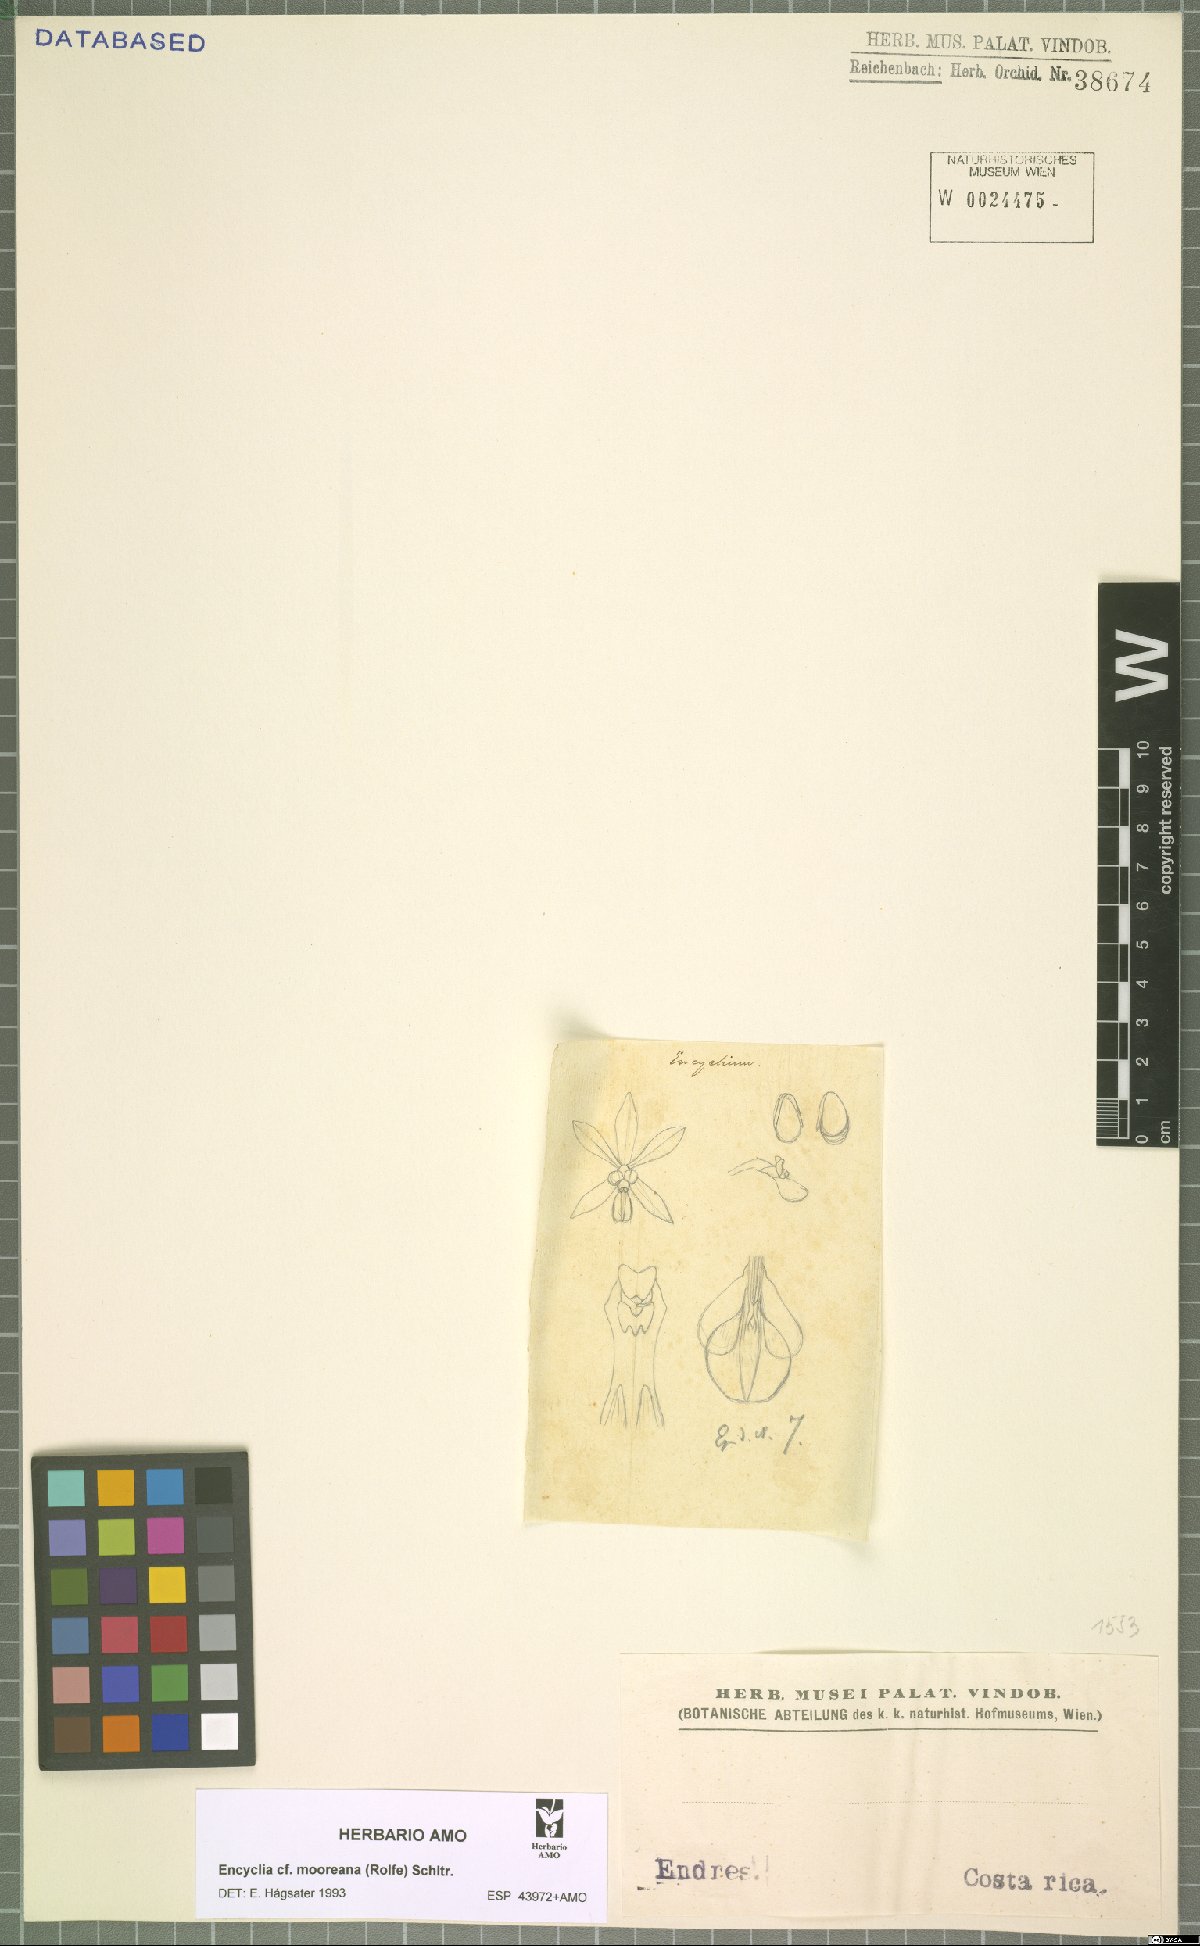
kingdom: Plantae
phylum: Tracheophyta
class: Liliopsida
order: Asparagales
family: Orchidaceae
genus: Encyclia
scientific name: Encyclia mooreana
